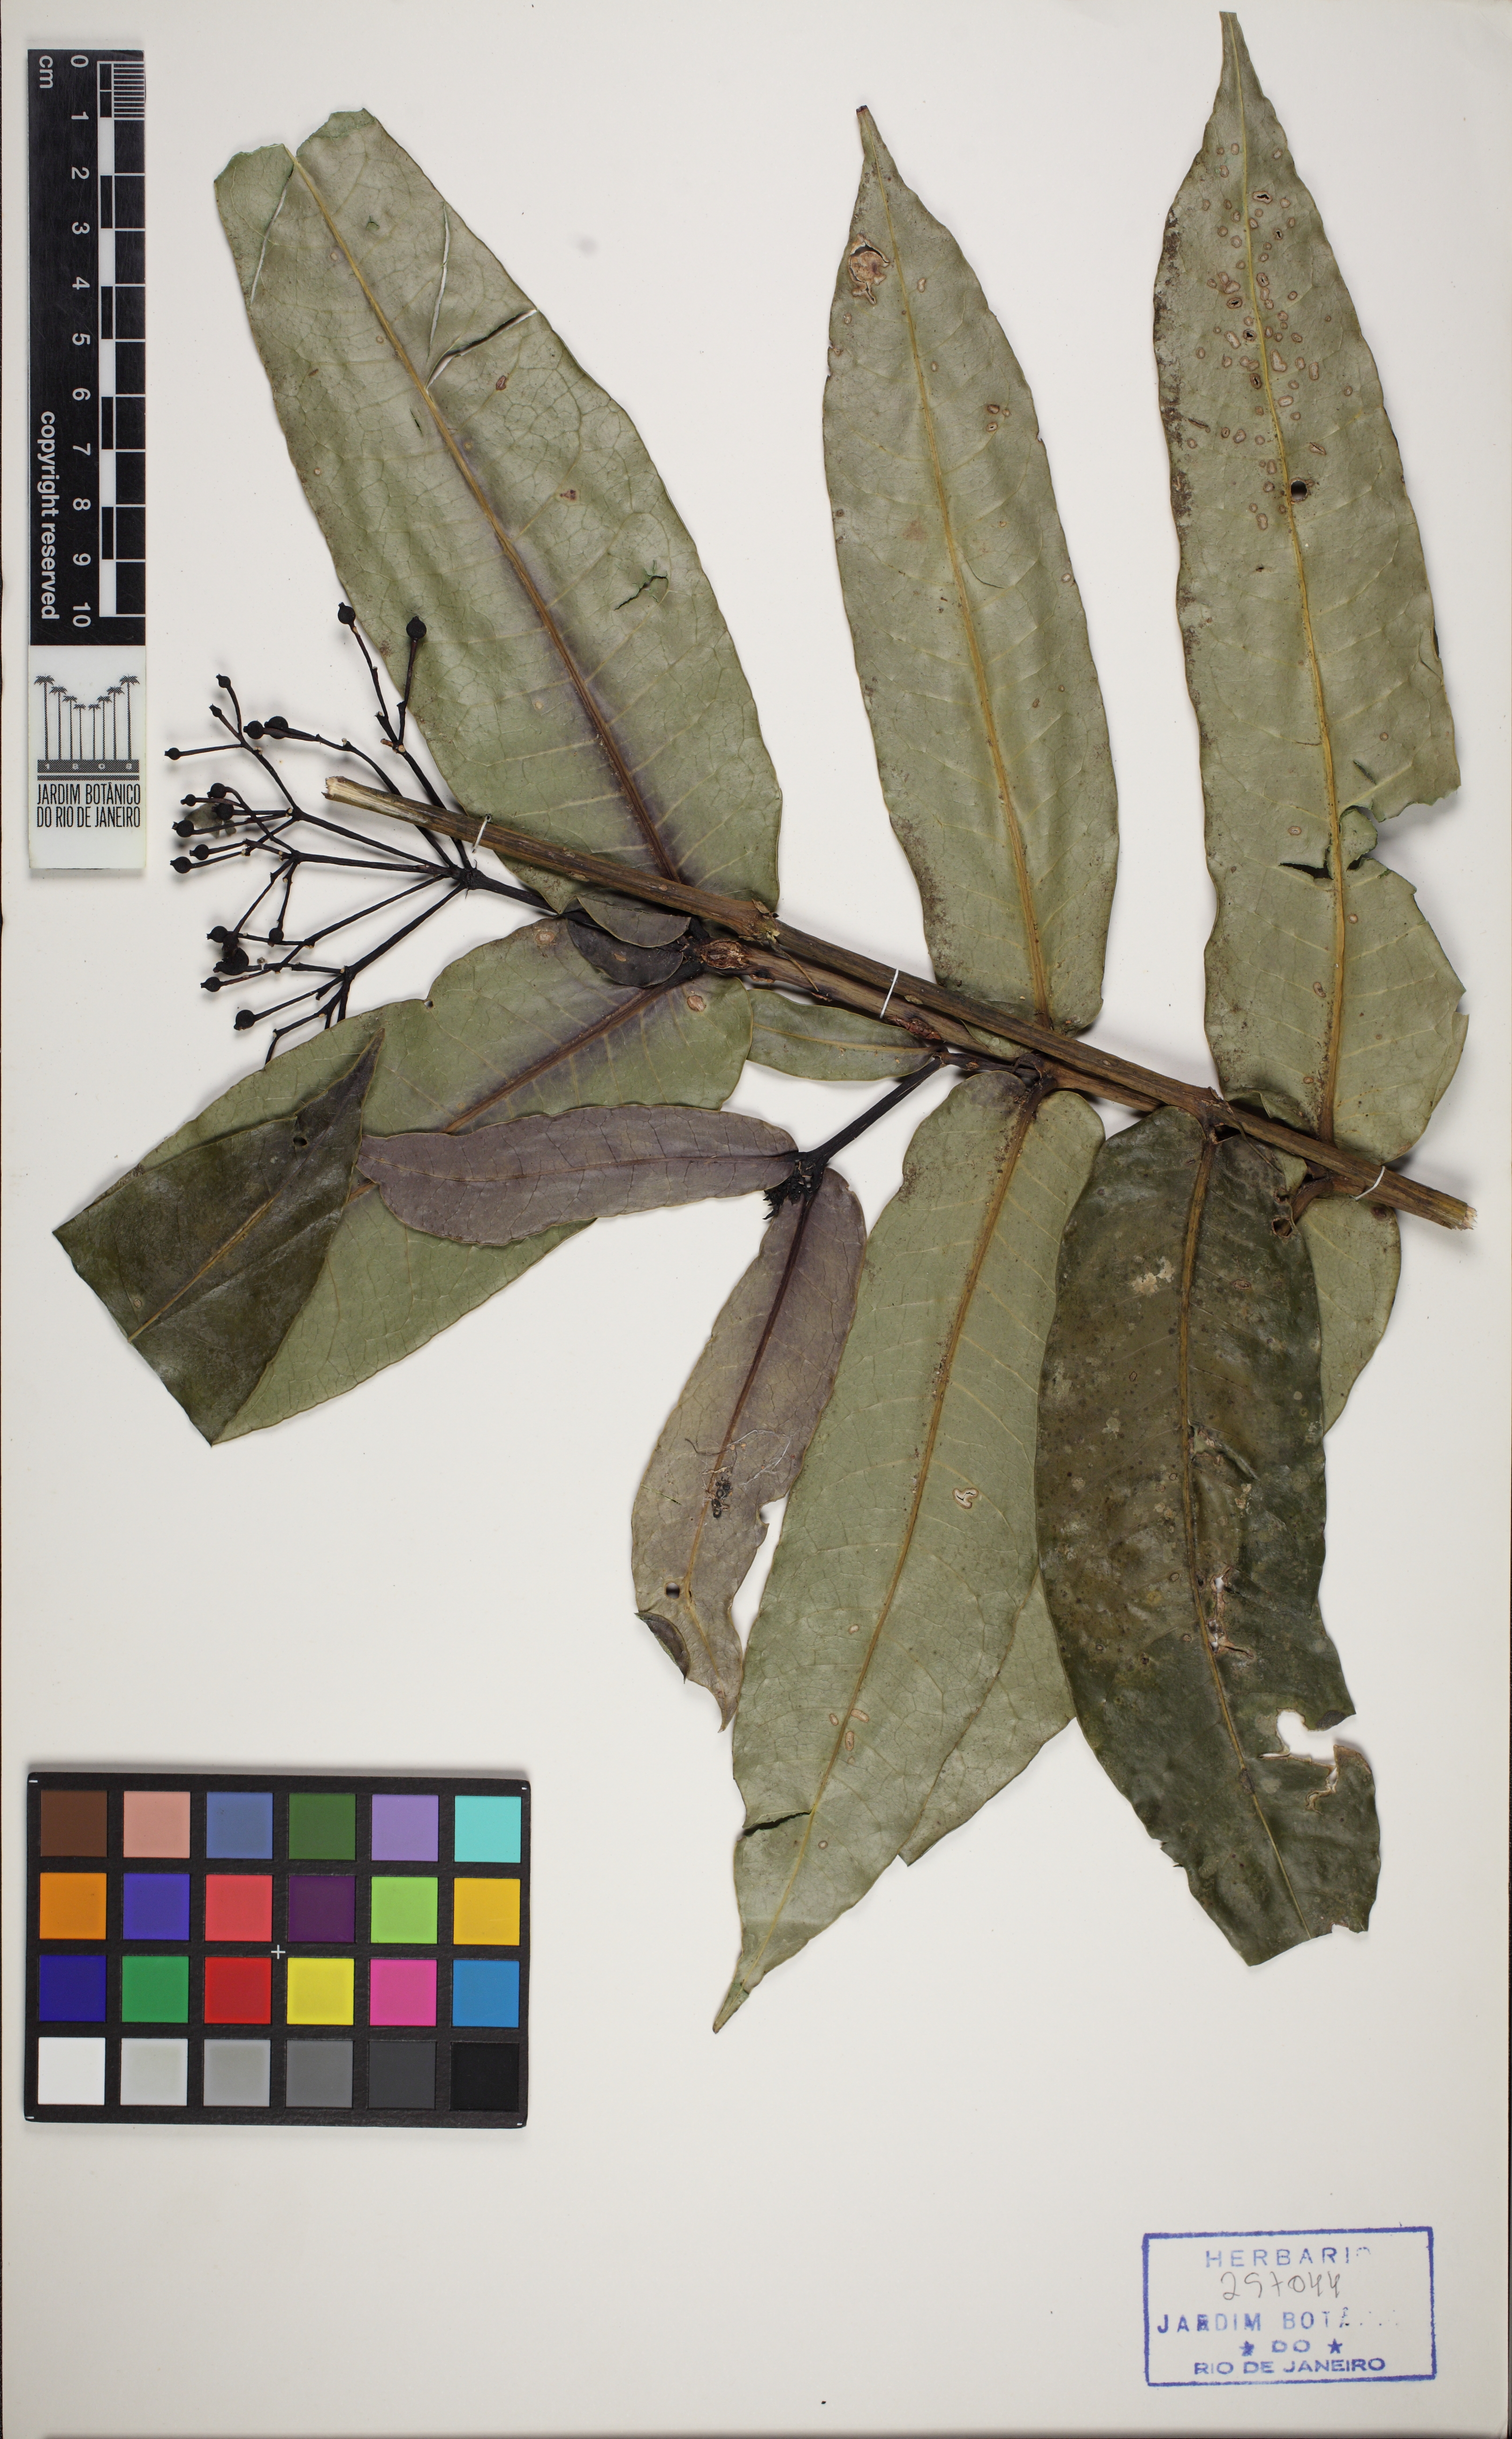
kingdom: Plantae
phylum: Tracheophyta
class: Magnoliopsida
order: Gentianales
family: Rubiaceae
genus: Faramea
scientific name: Faramea martiana
